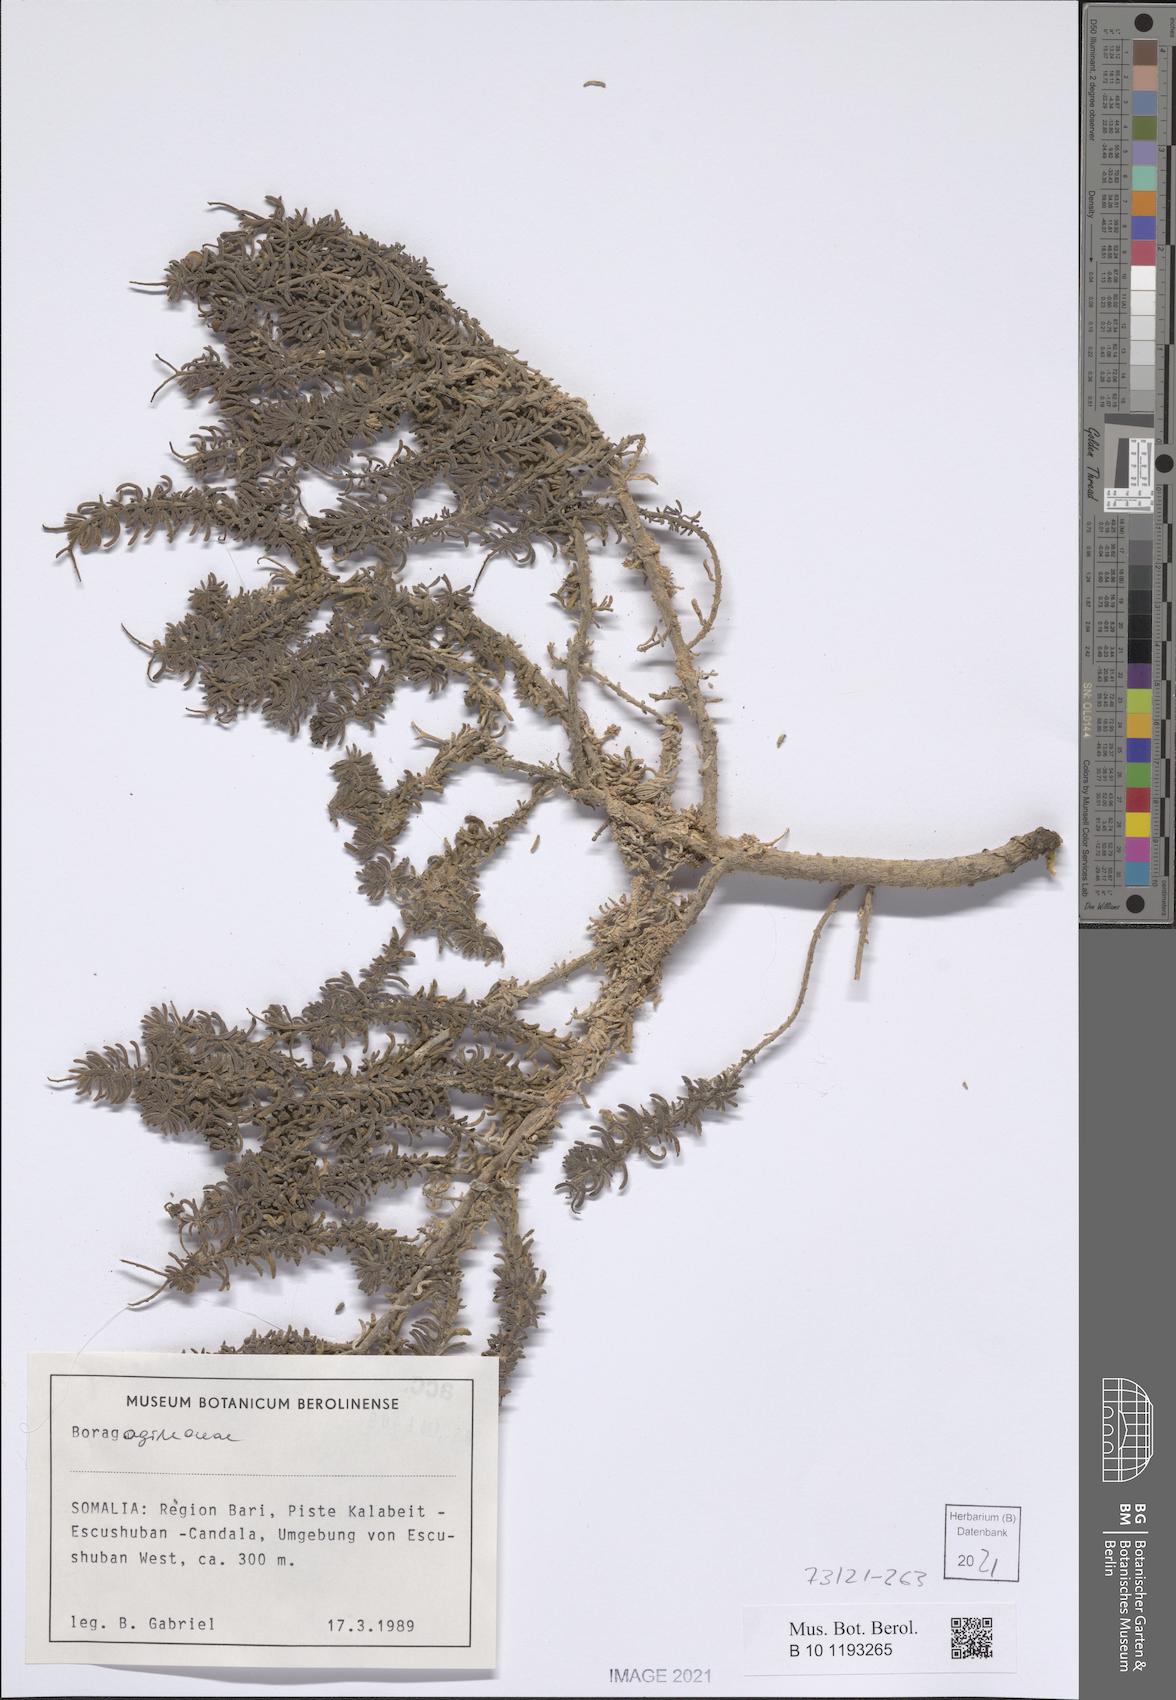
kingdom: Plantae
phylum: Tracheophyta
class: Magnoliopsida
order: Boraginales
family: Heliotropiaceae
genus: Heliotropium
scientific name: Heliotropium drepanophyllum
